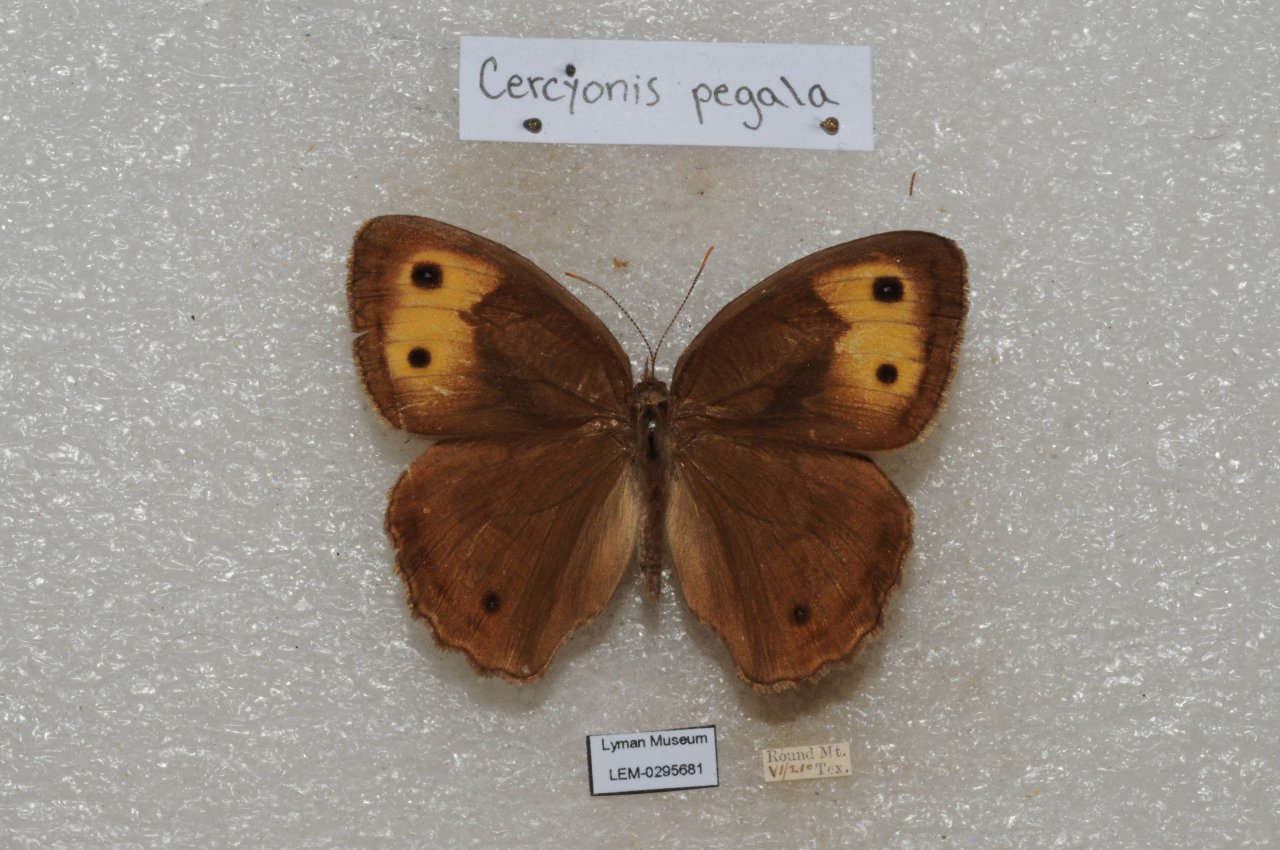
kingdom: Animalia
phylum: Arthropoda
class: Insecta
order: Lepidoptera
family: Nymphalidae
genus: Cercyonis
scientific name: Cercyonis pegala
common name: Common Wood-Nymph
